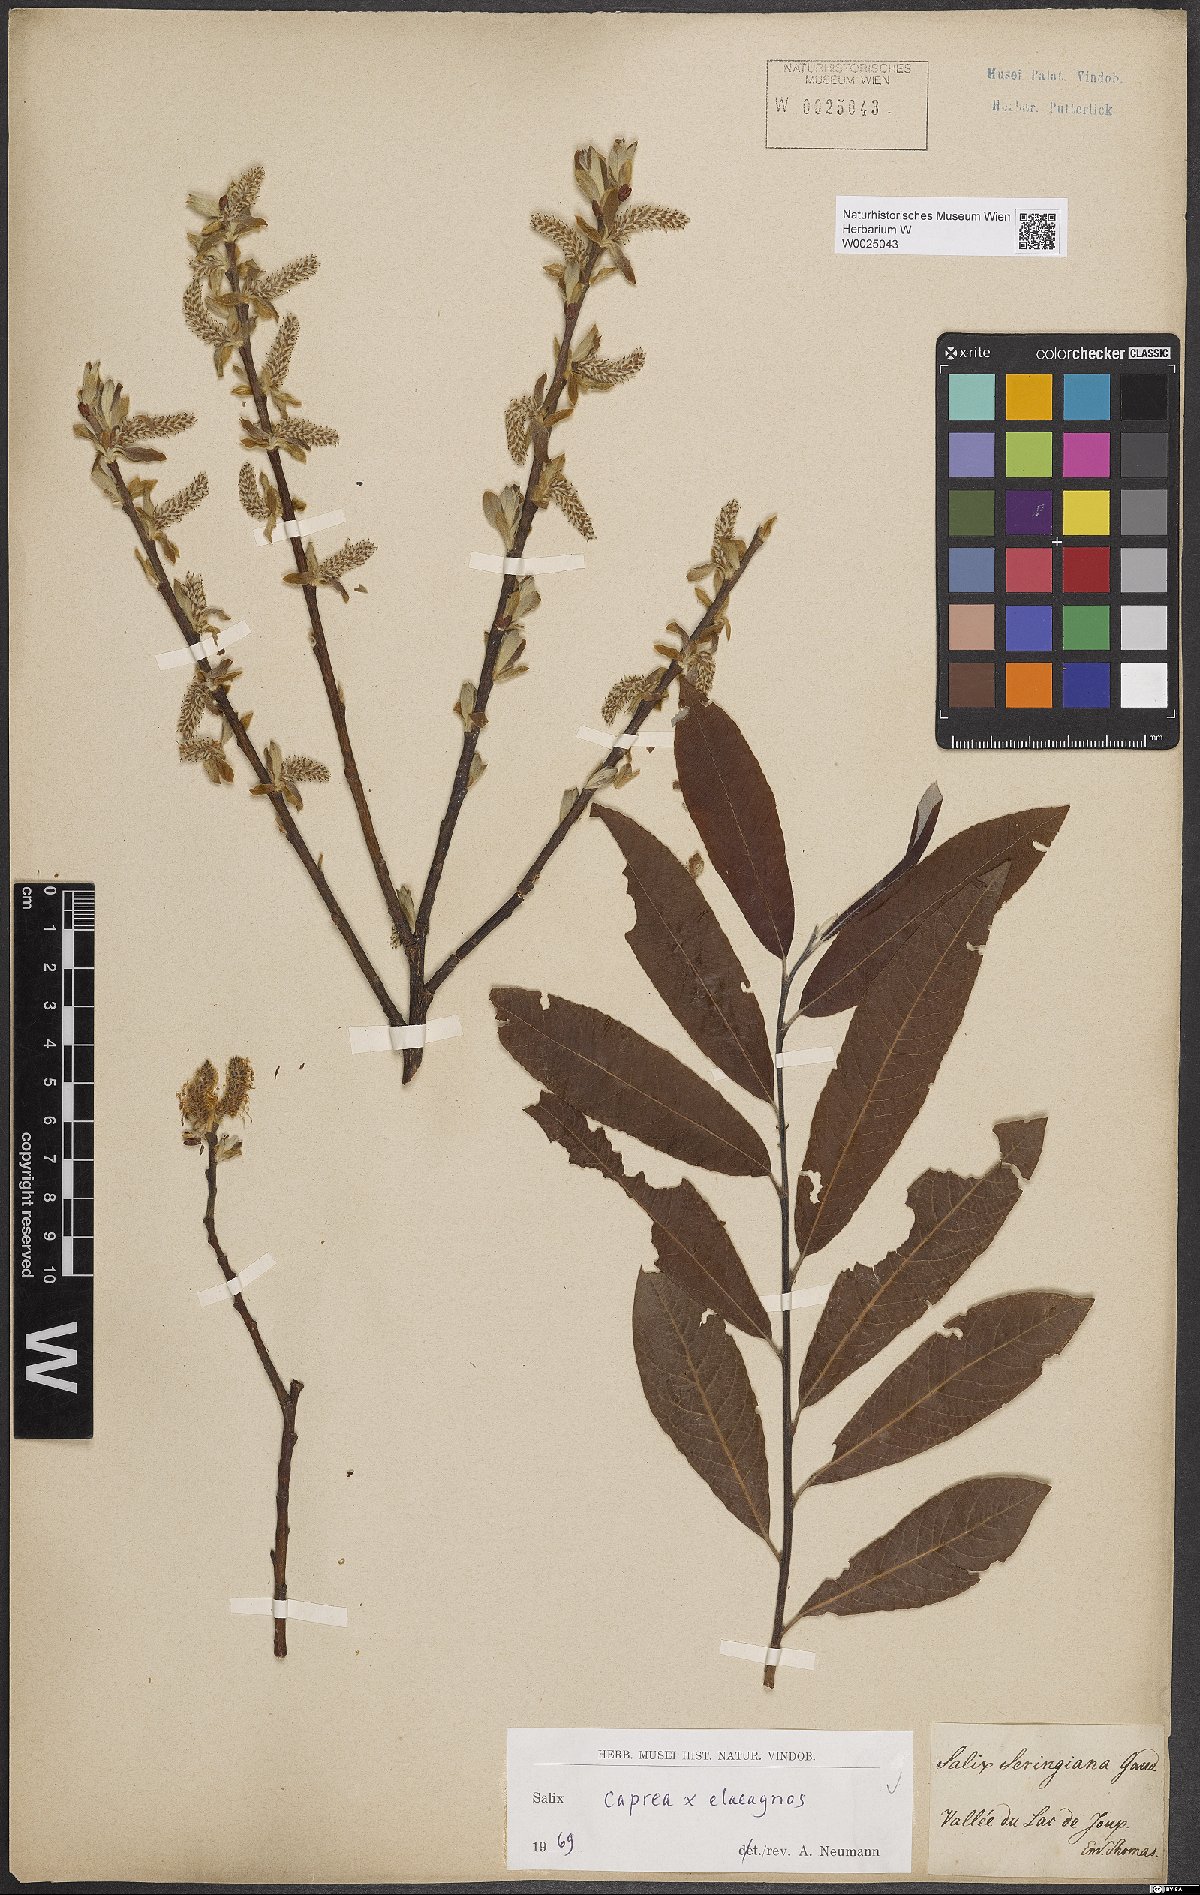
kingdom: Plantae
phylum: Tracheophyta
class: Magnoliopsida
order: Malpighiales
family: Salicaceae
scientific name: Salicaceae
